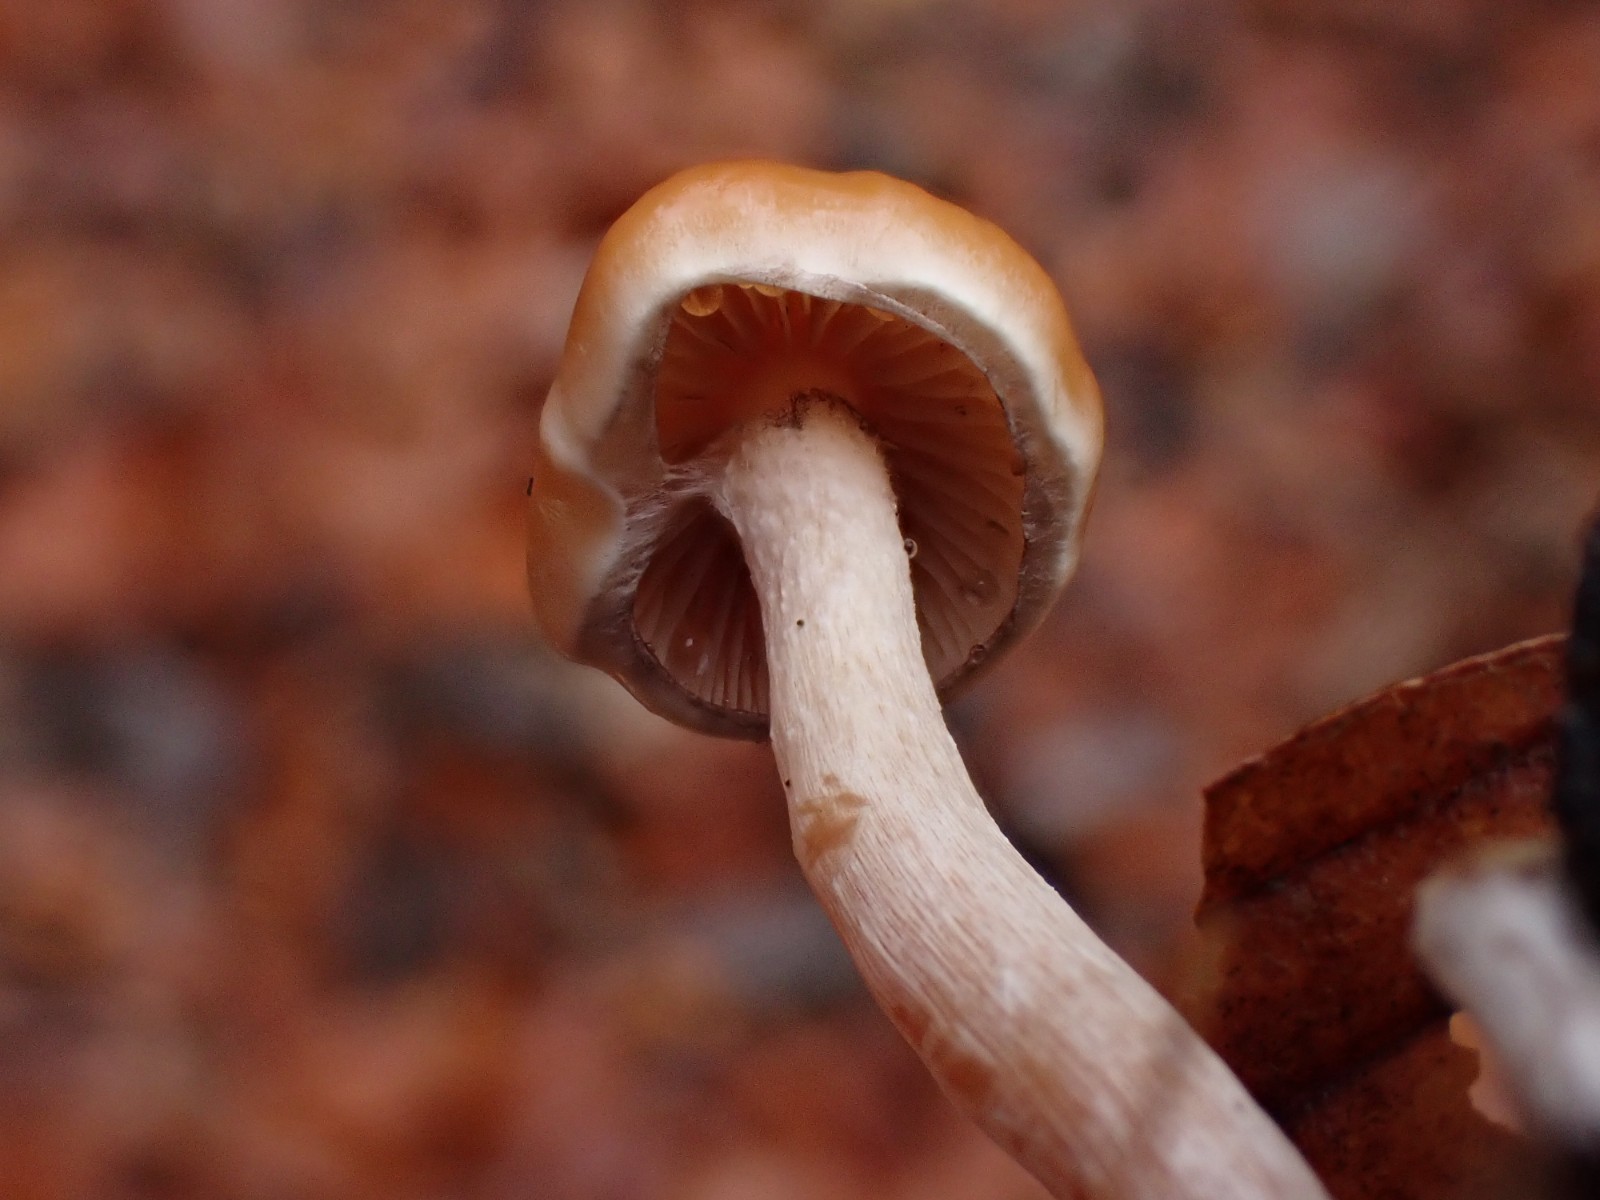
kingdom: Fungi
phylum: Basidiomycota
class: Agaricomycetes
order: Agaricales
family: Strophariaceae
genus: Hypholoma
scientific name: Hypholoma marginatum
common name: enlig svovlhat
